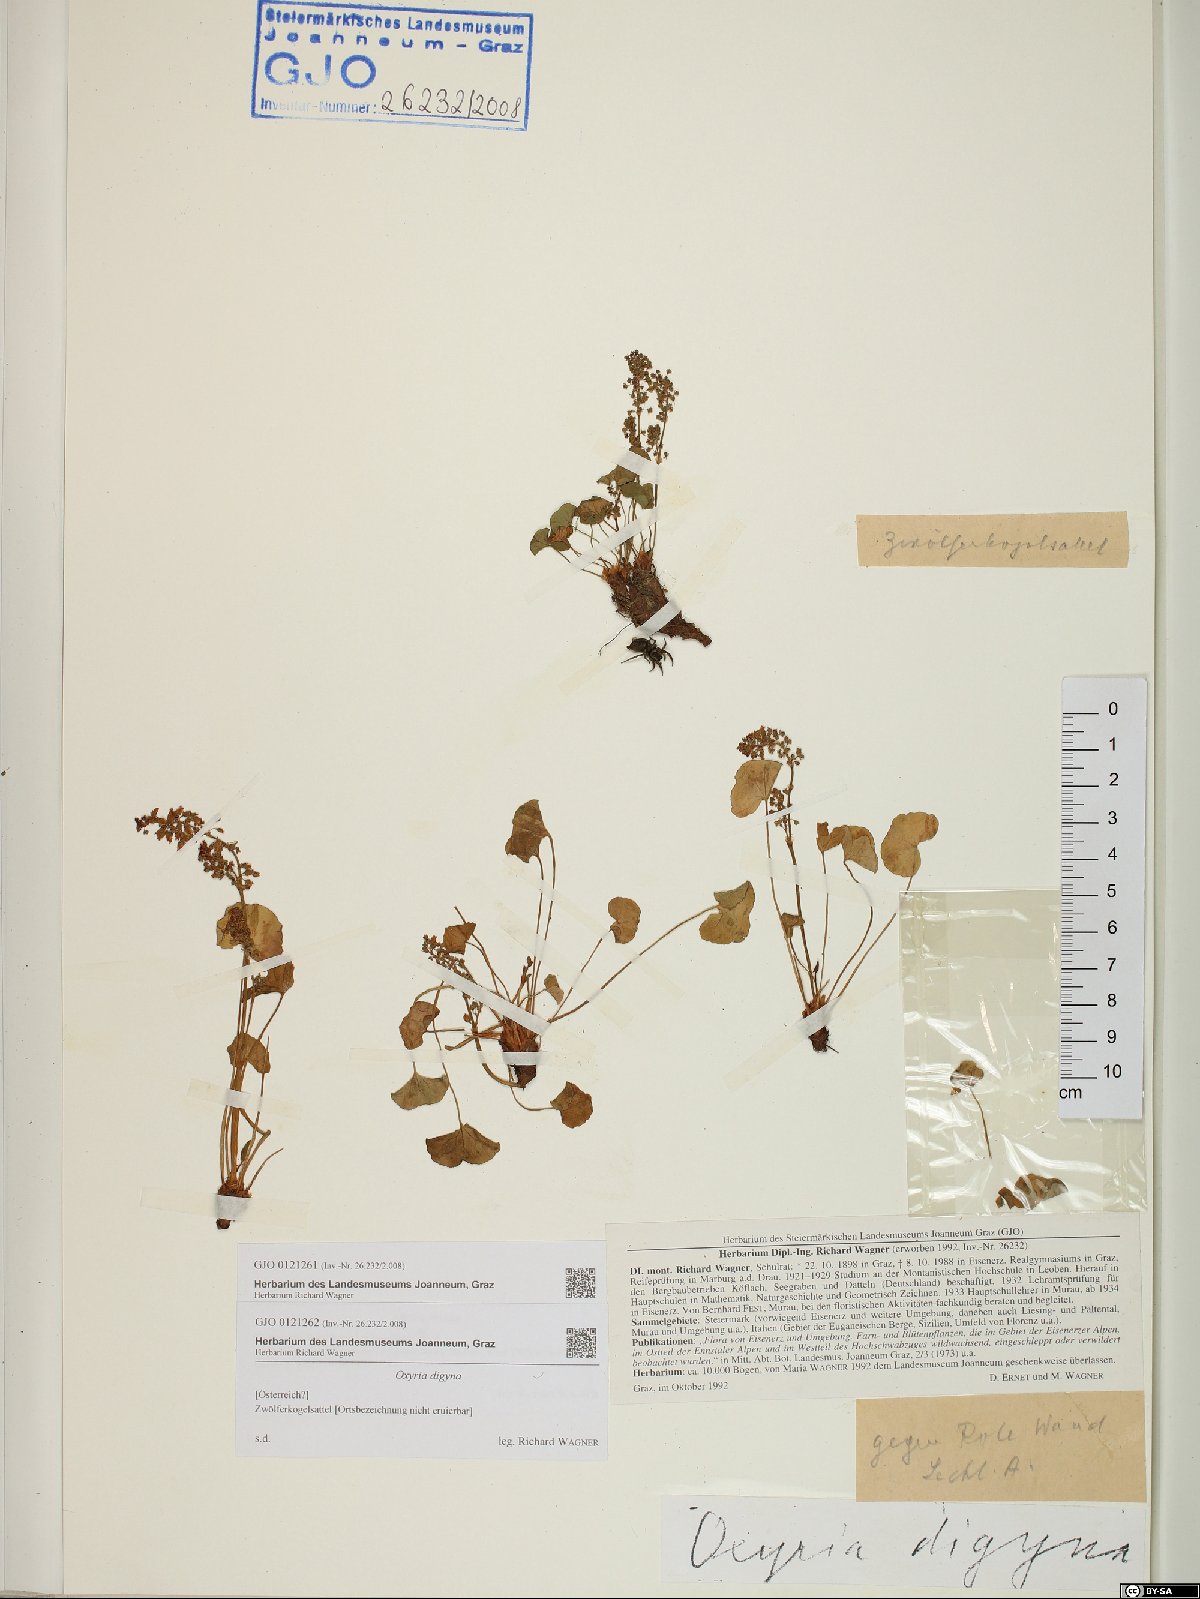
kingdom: Plantae
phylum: Tracheophyta
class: Magnoliopsida
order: Caryophyllales
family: Polygonaceae
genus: Oxyria
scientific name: Oxyria digyna
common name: Alpine mountain-sorrel
